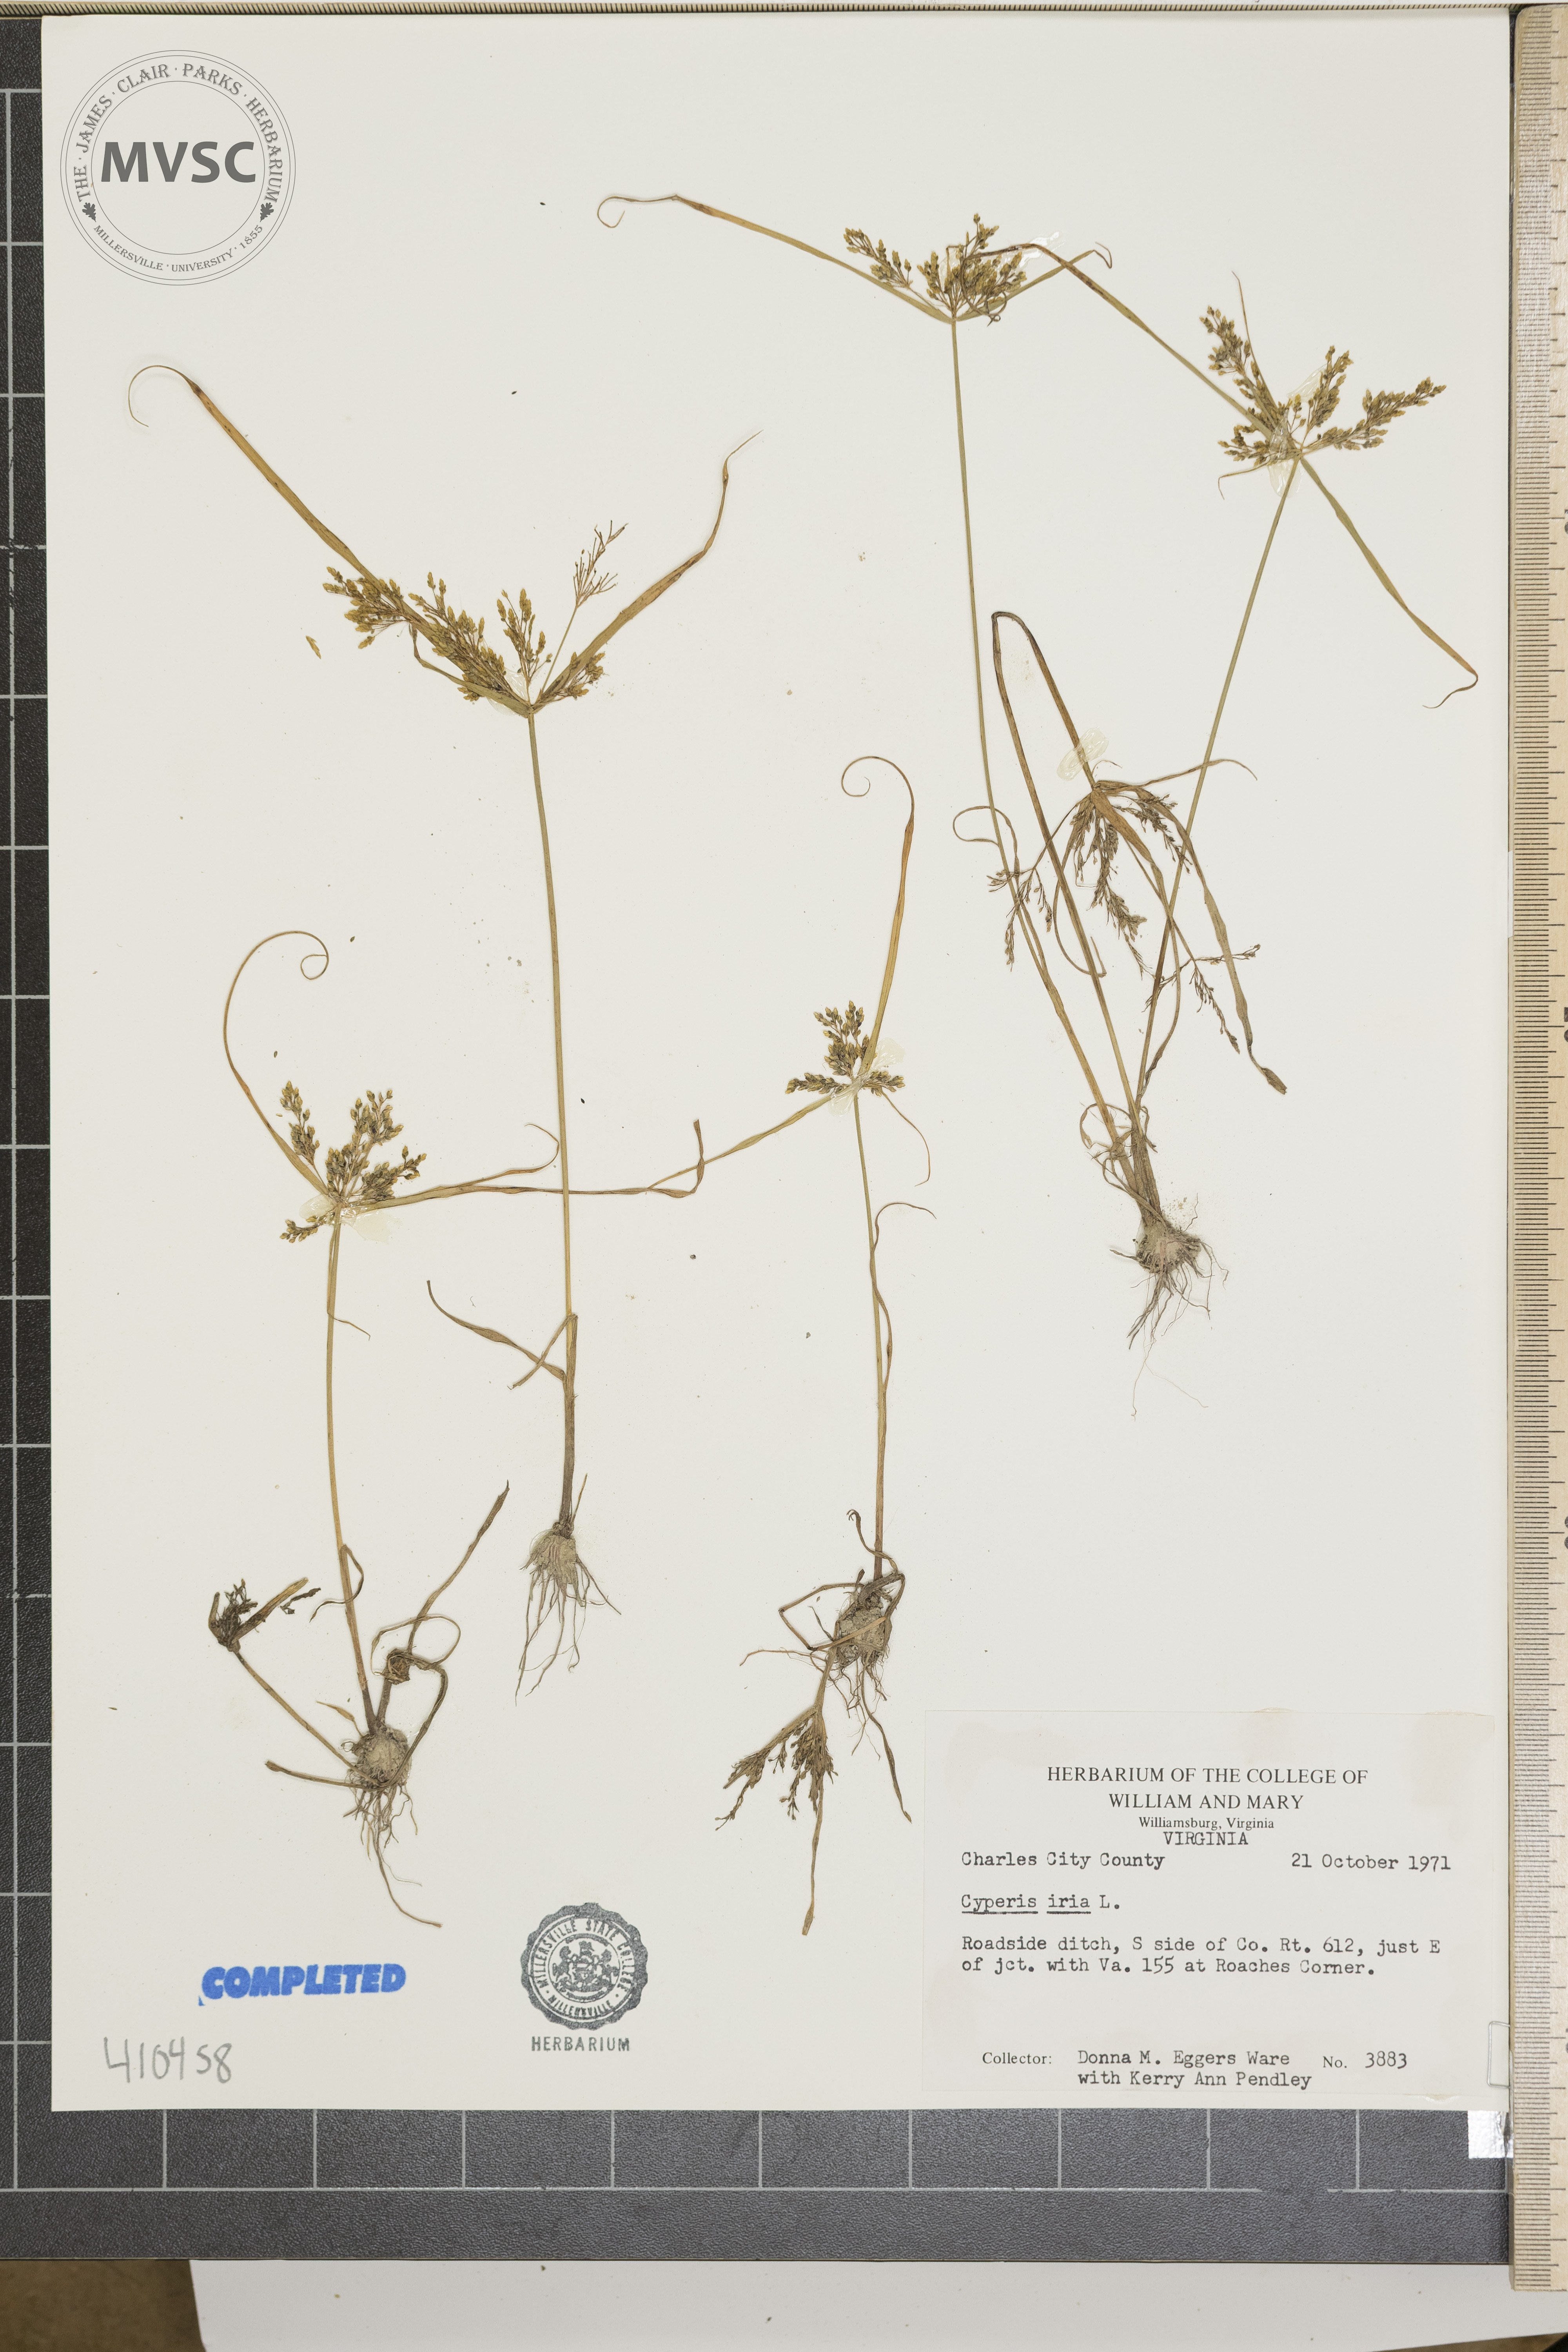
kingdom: Plantae
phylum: Tracheophyta
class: Liliopsida
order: Poales
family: Cyperaceae
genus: Cyperus
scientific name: Cyperus iria
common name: Ricefield flatsedge
